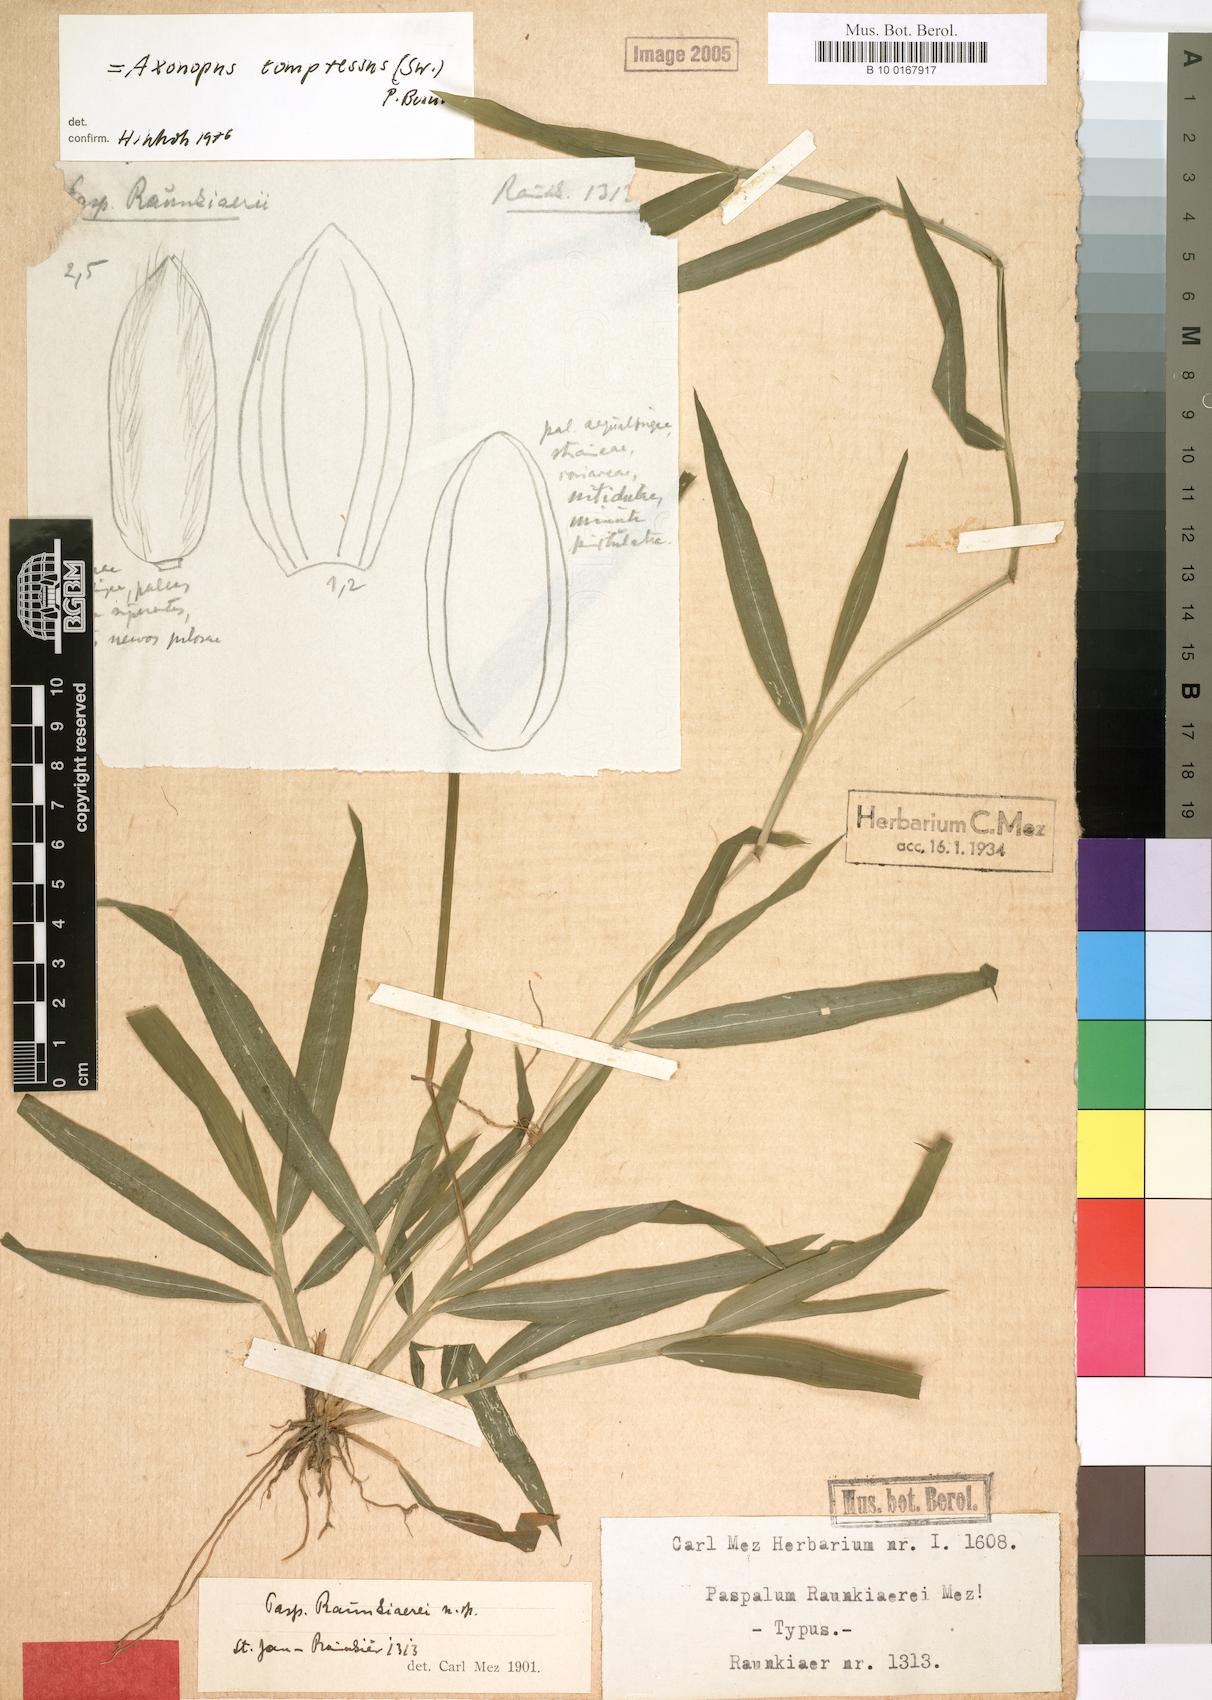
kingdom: Plantae
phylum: Tracheophyta
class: Liliopsida
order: Poales
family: Poaceae
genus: Axonopus
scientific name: Axonopus compressus
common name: American carpet grass
